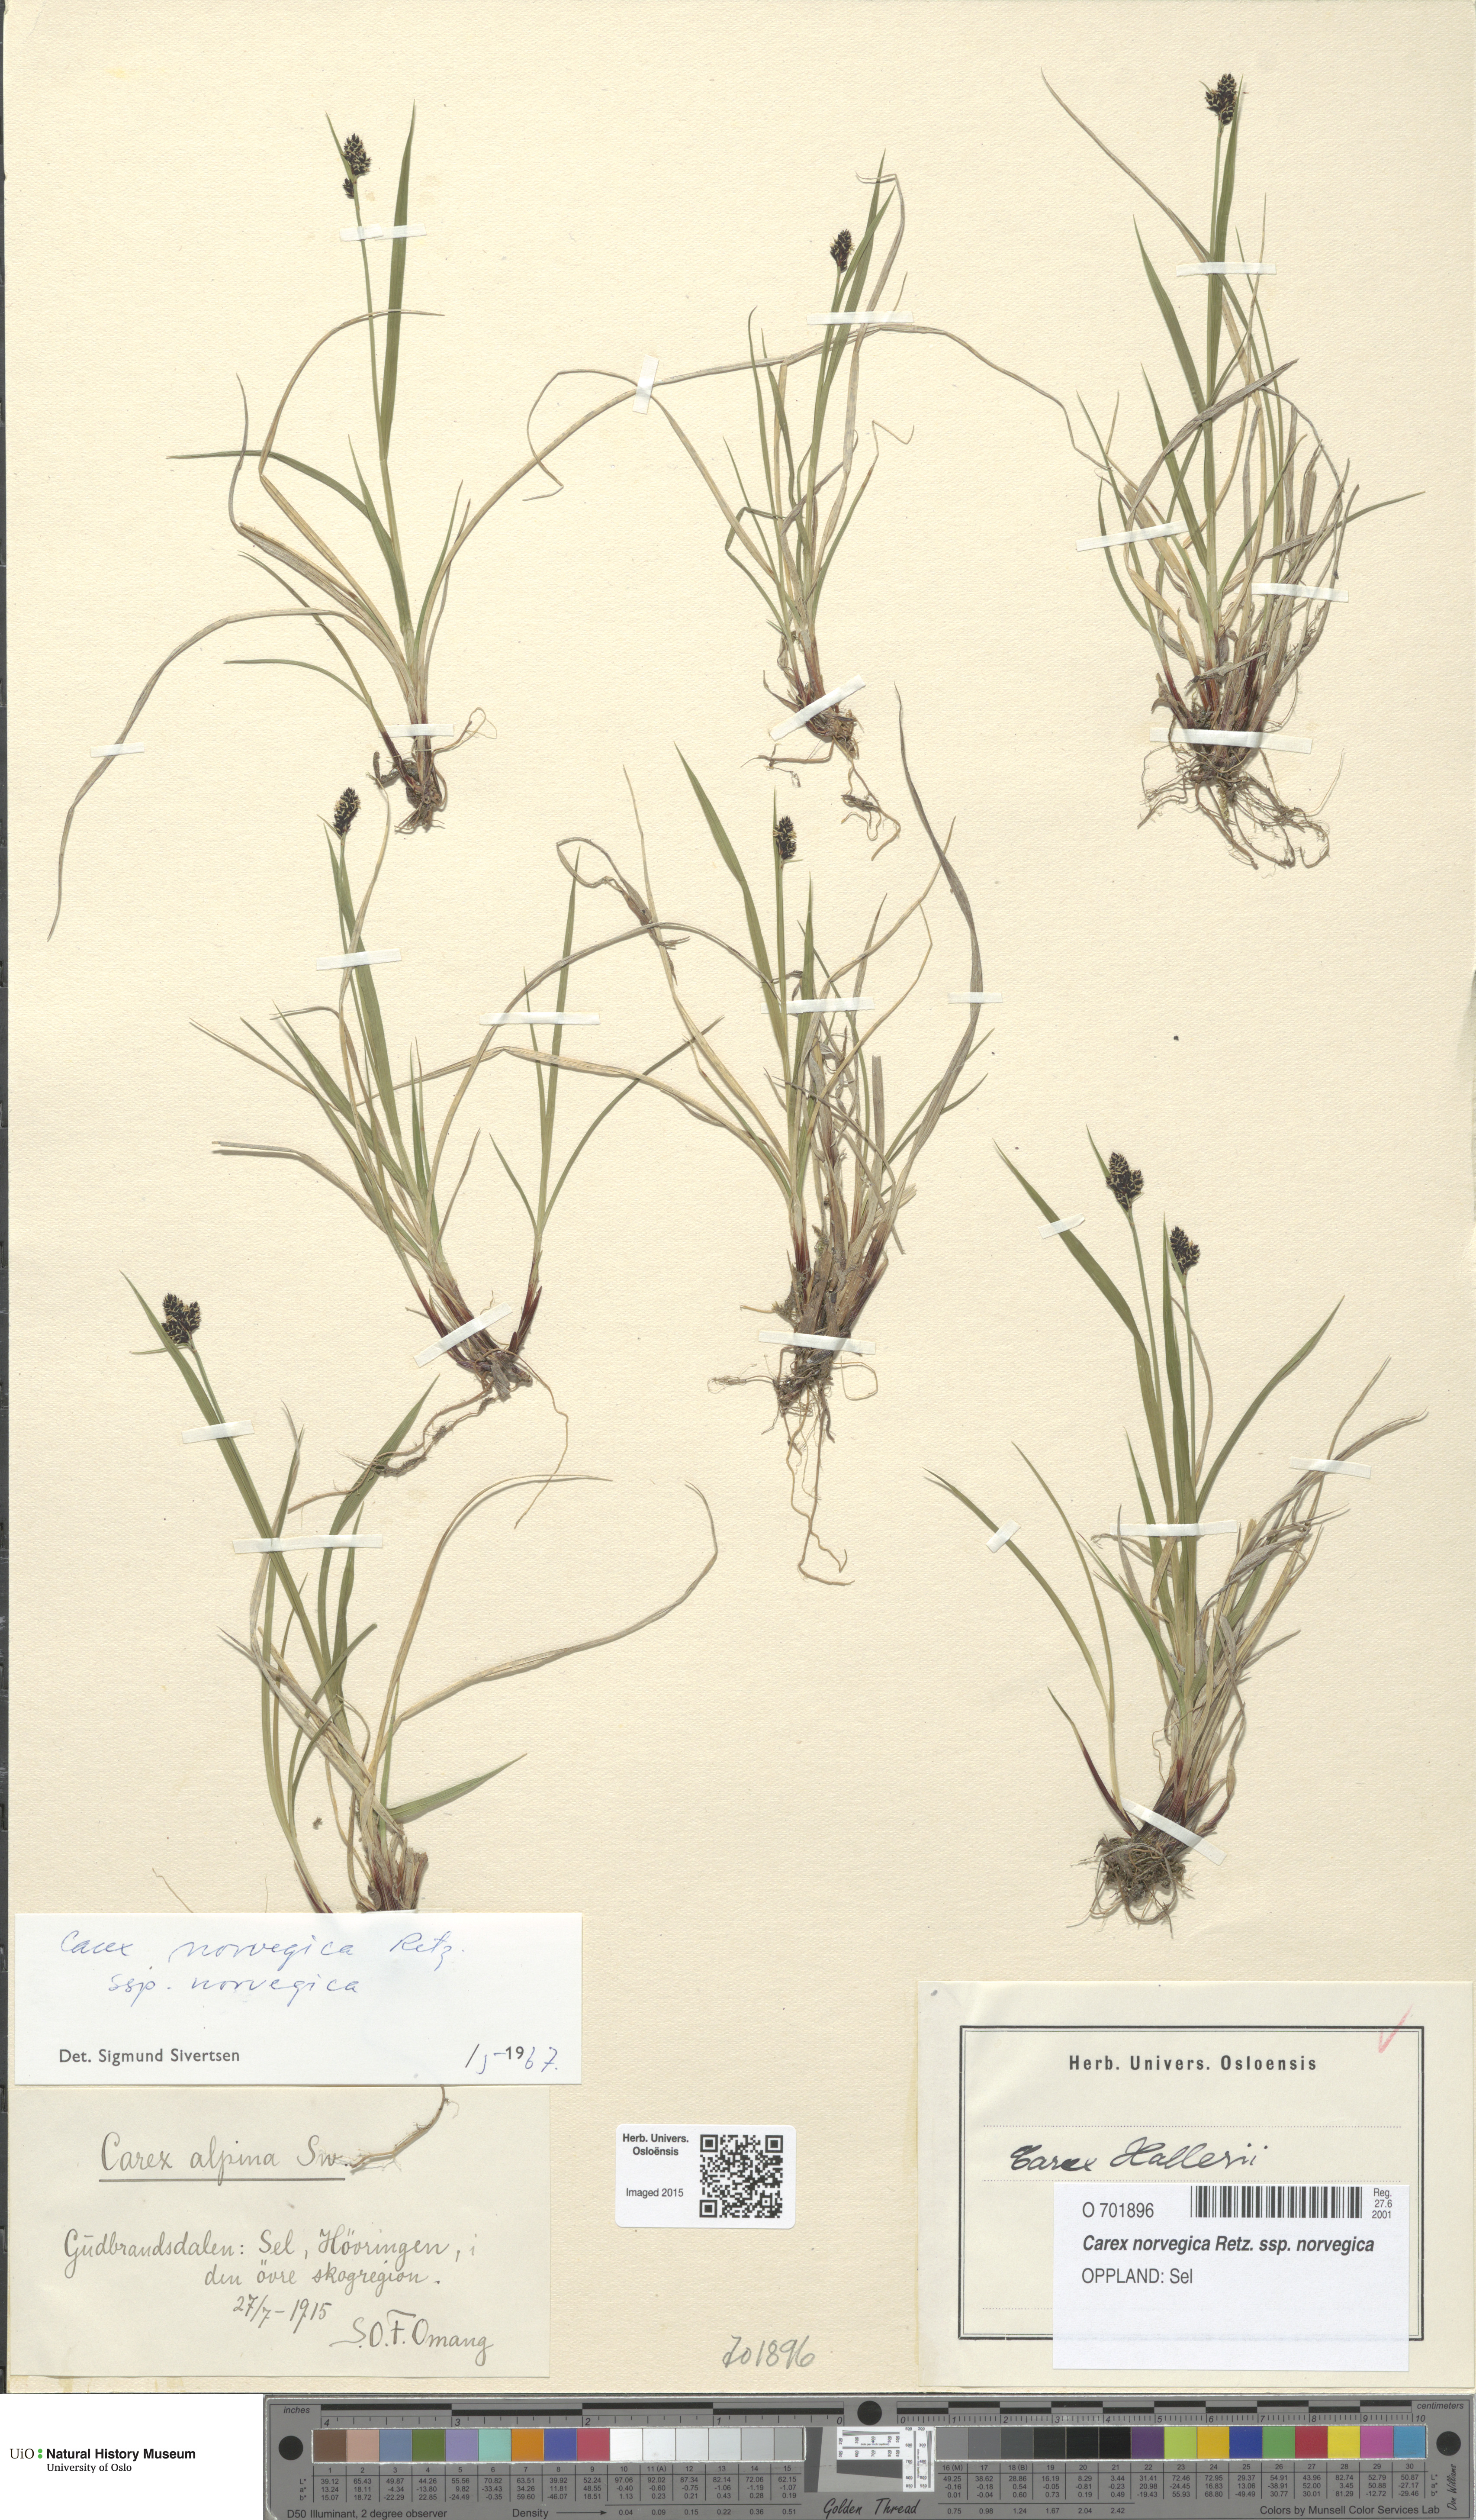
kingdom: Plantae
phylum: Tracheophyta
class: Liliopsida
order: Poales
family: Cyperaceae
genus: Carex
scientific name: Carex norvegica
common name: Close-headed alpine-sedge
